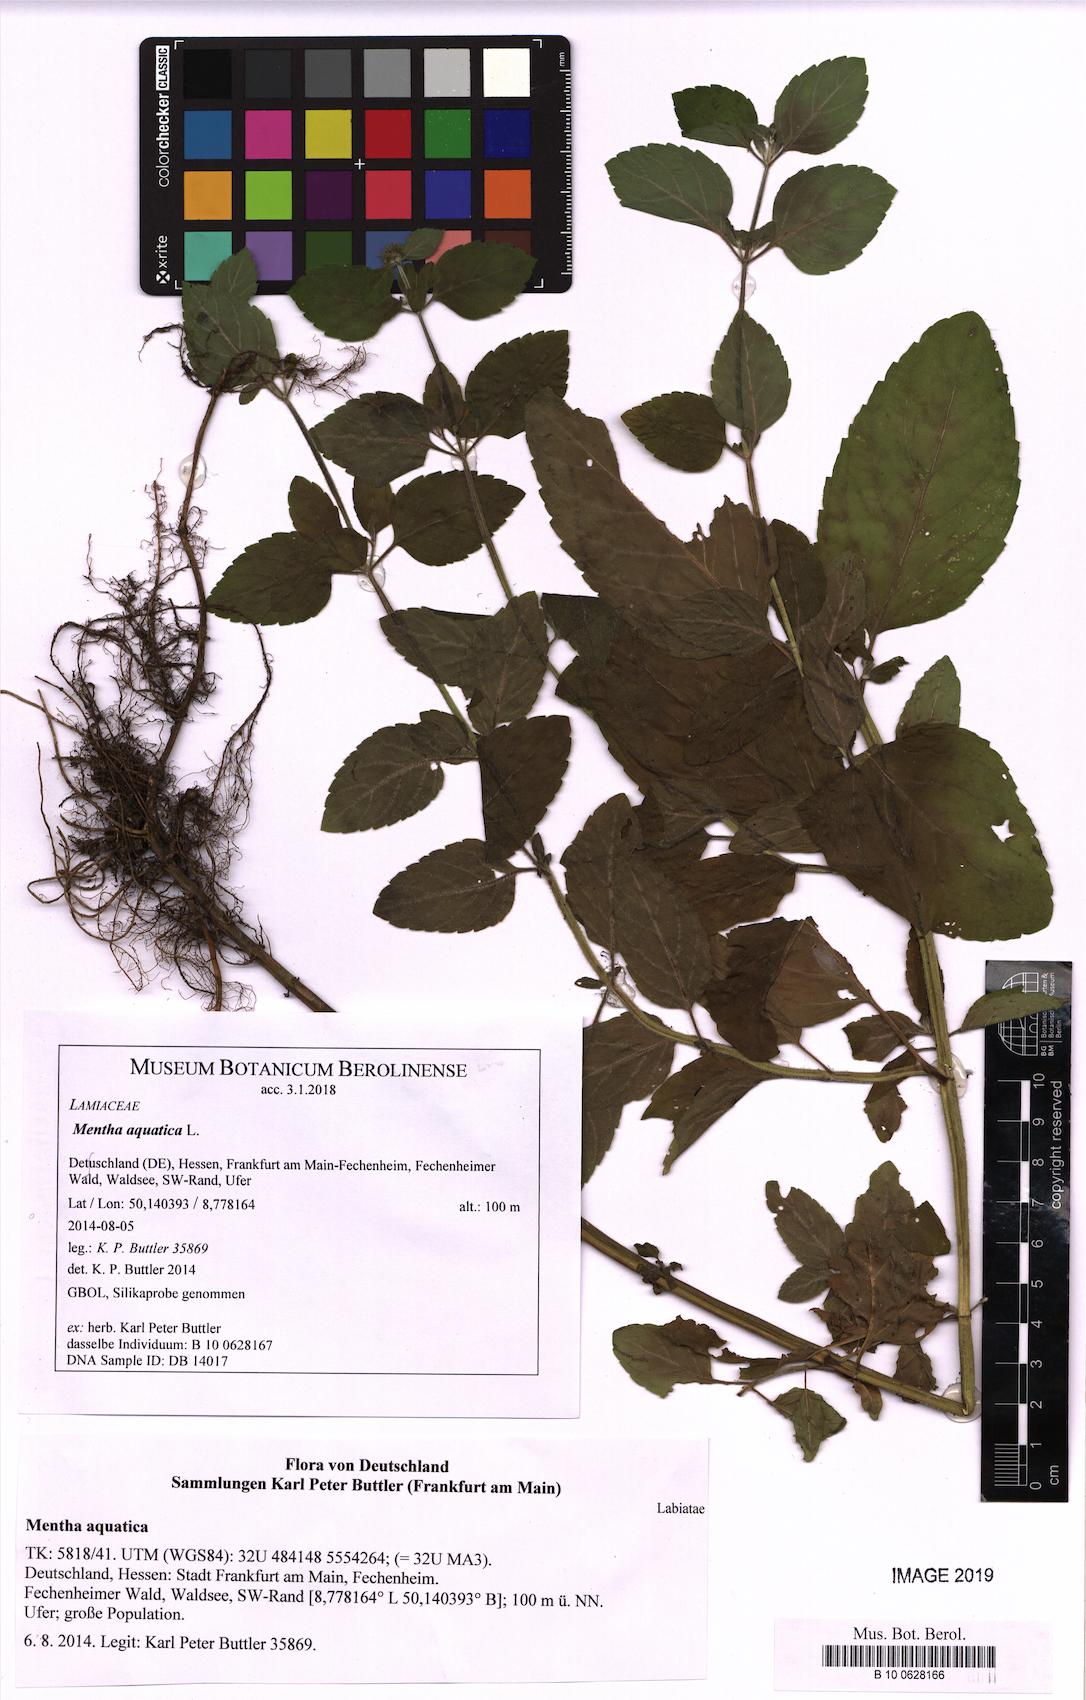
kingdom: Plantae
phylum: Tracheophyta
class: Magnoliopsida
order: Lamiales
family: Lamiaceae
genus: Mentha
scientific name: Mentha aquatica
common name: Water mint
